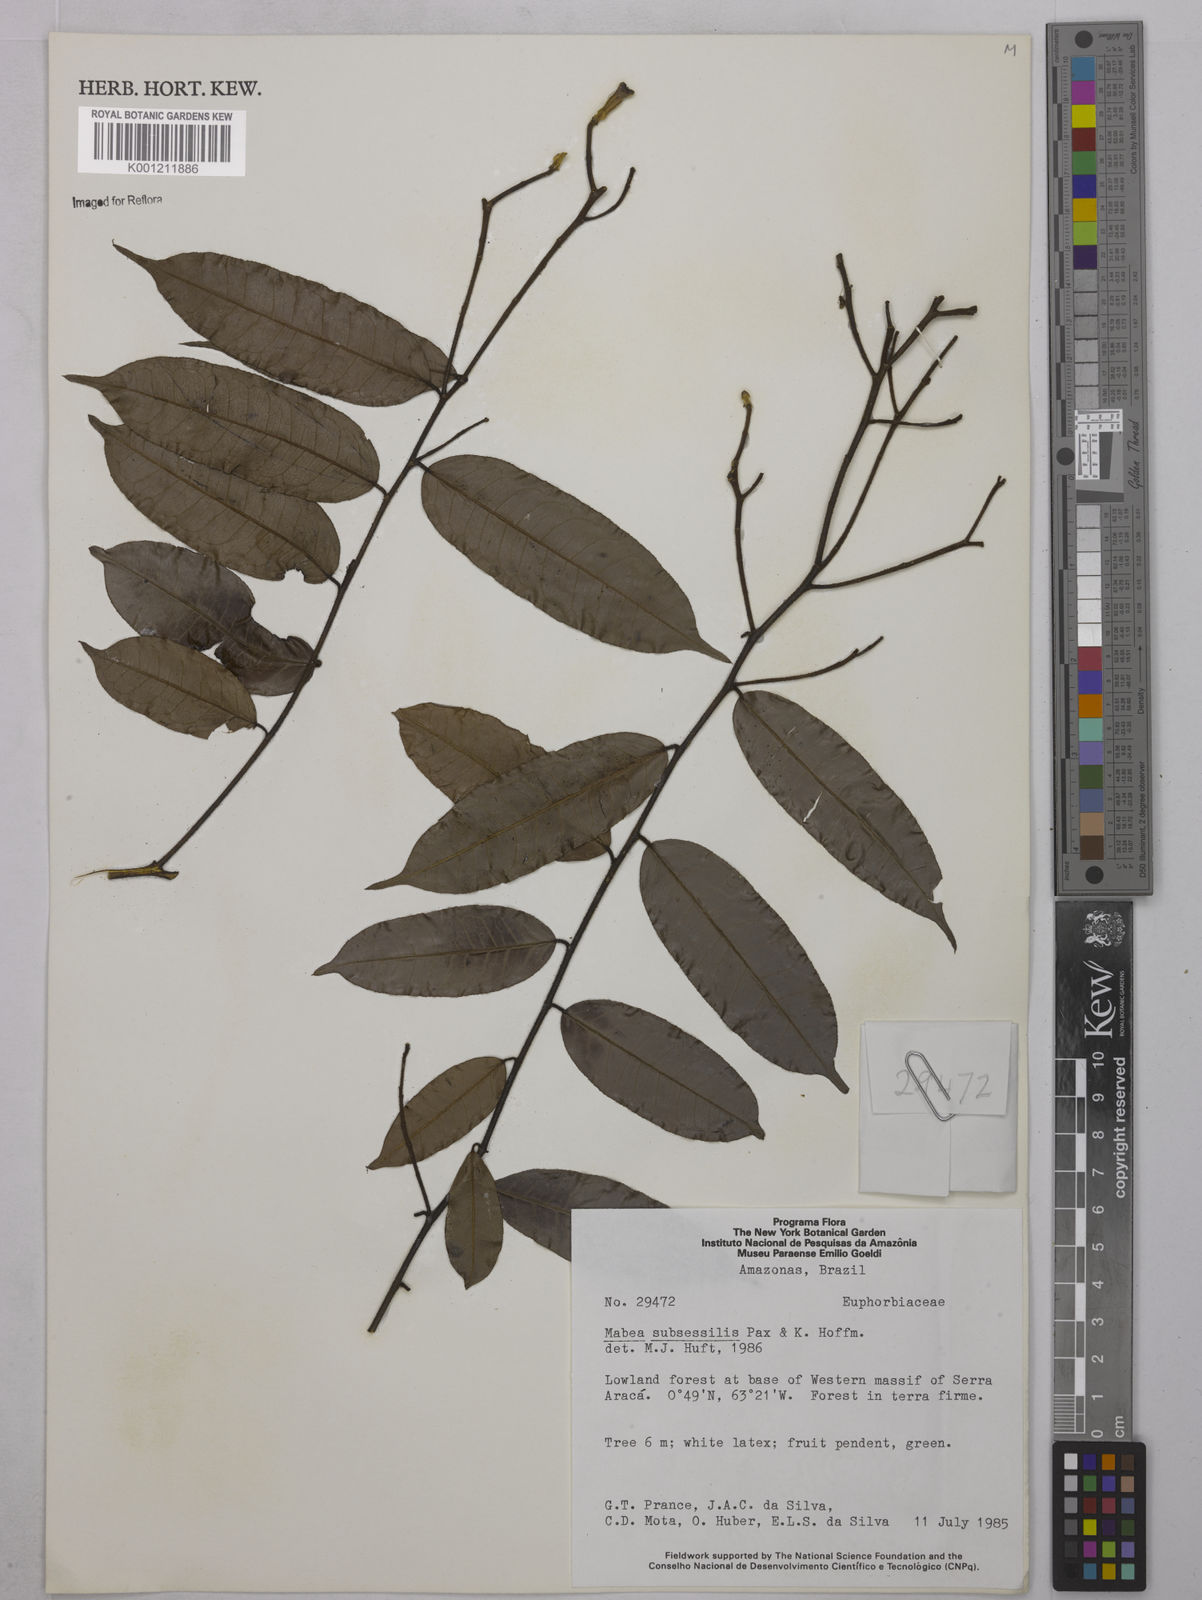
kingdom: Plantae
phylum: Tracheophyta
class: Magnoliopsida
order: Malpighiales
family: Euphorbiaceae
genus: Mabea
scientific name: Mabea subsessilis
